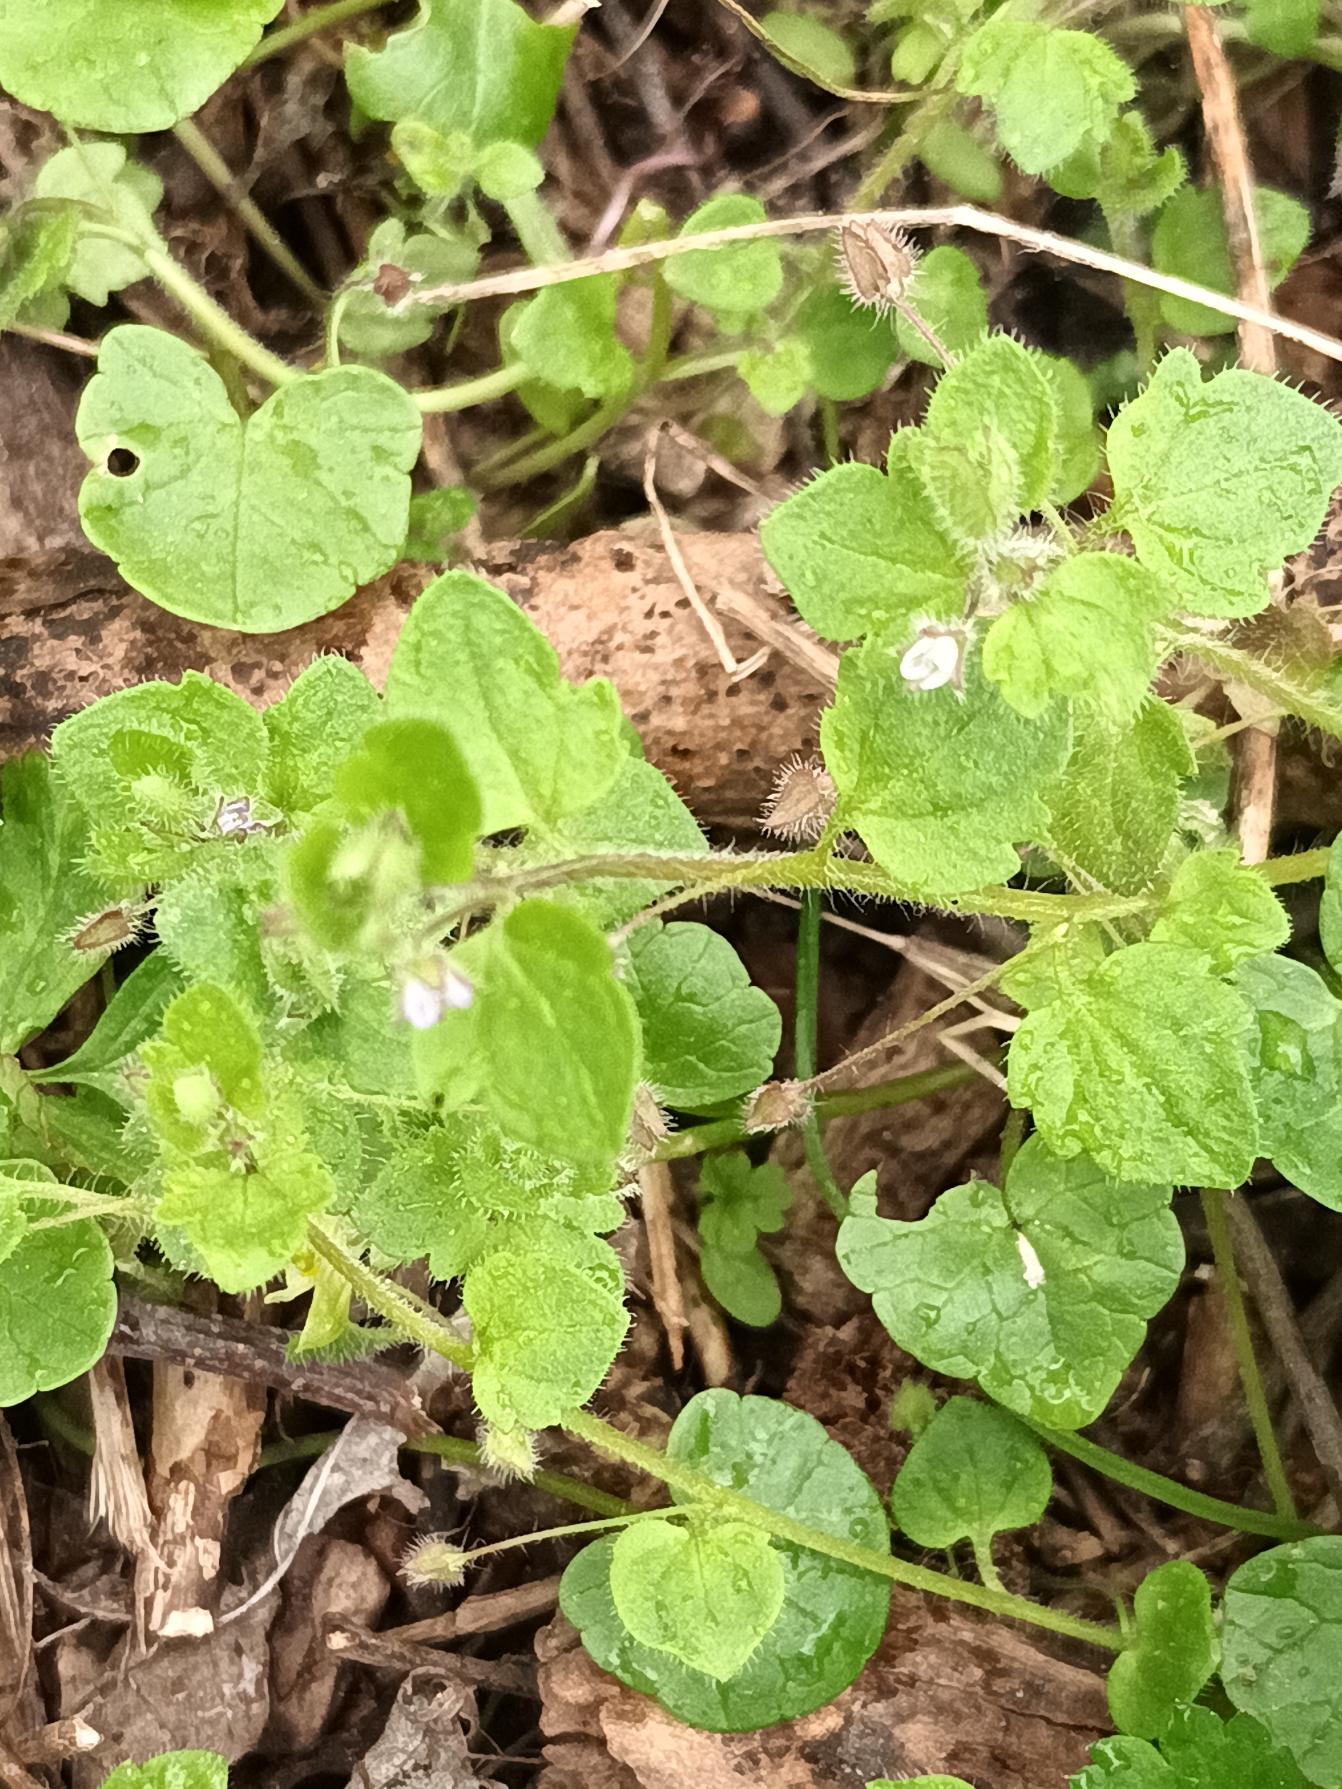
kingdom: Plantae
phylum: Tracheophyta
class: Magnoliopsida
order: Lamiales
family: Plantaginaceae
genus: Veronica
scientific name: Veronica sublobata
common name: Krat-ærenpris
